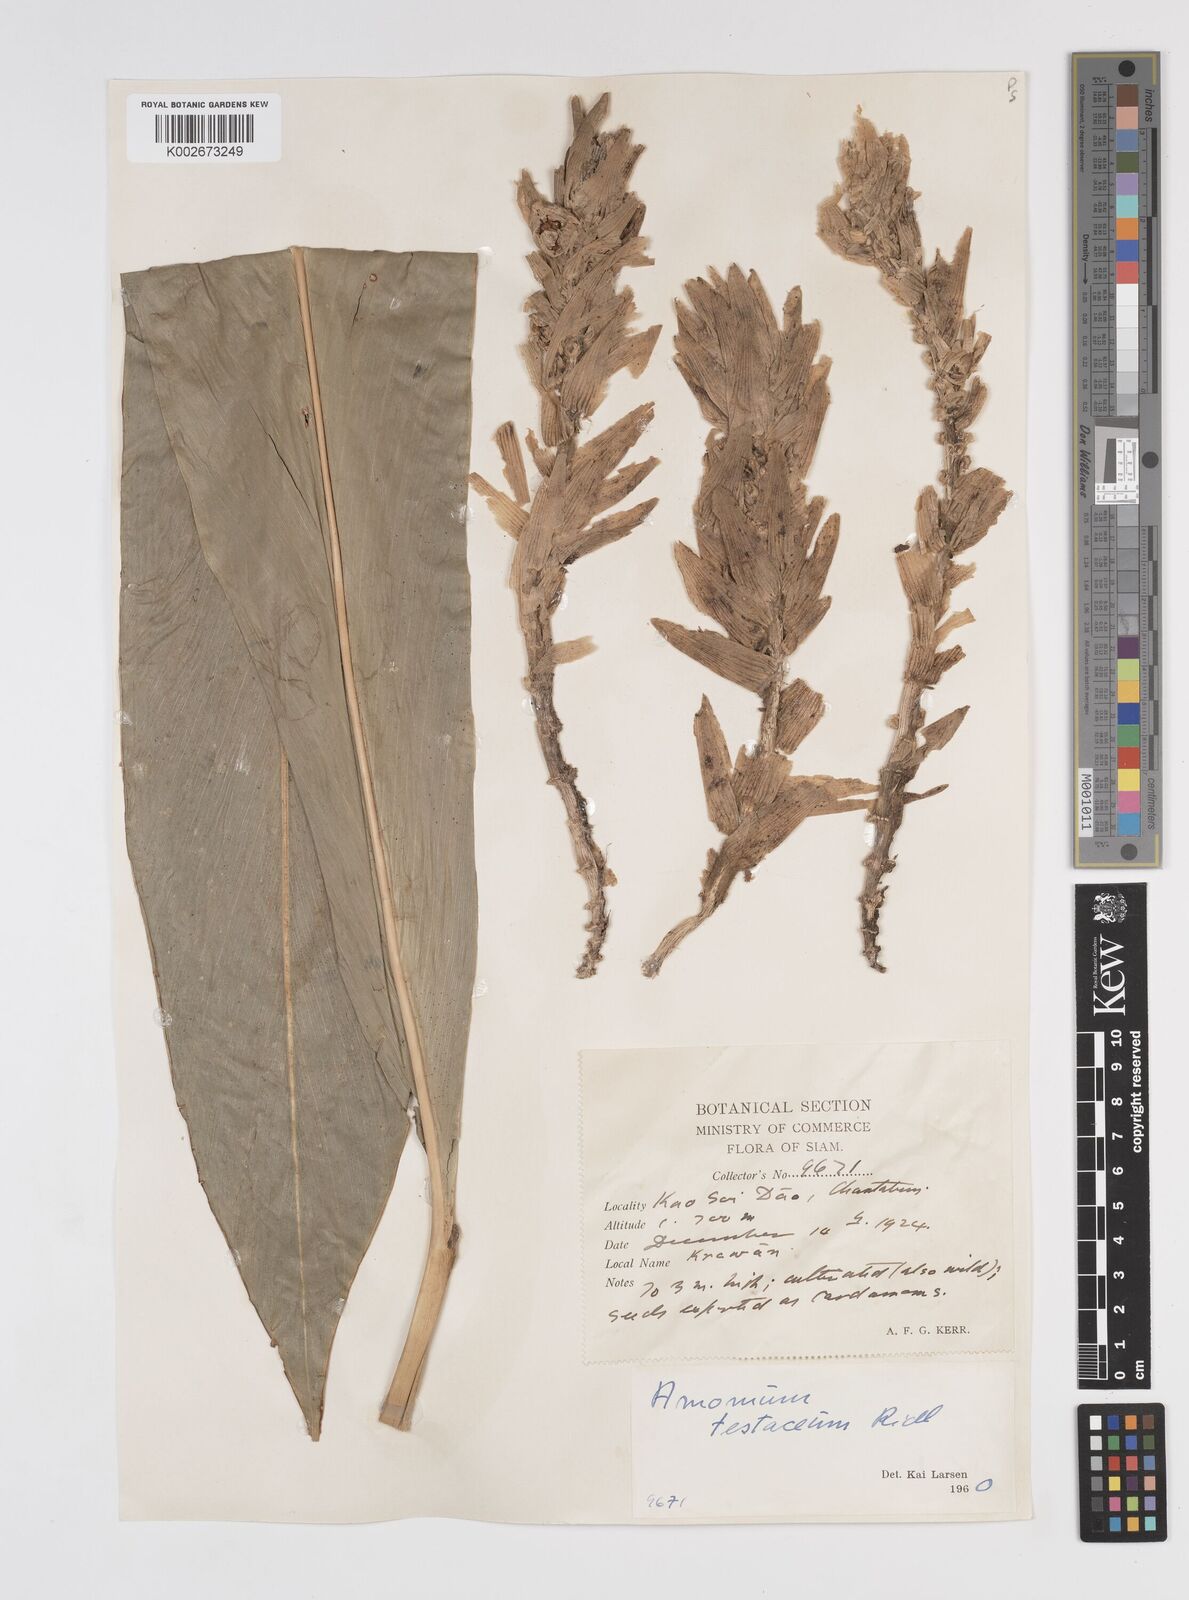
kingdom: Plantae
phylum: Tracheophyta
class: Liliopsida
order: Zingiberales
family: Zingiberaceae
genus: Wurfbainia
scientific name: Wurfbainia testacea
